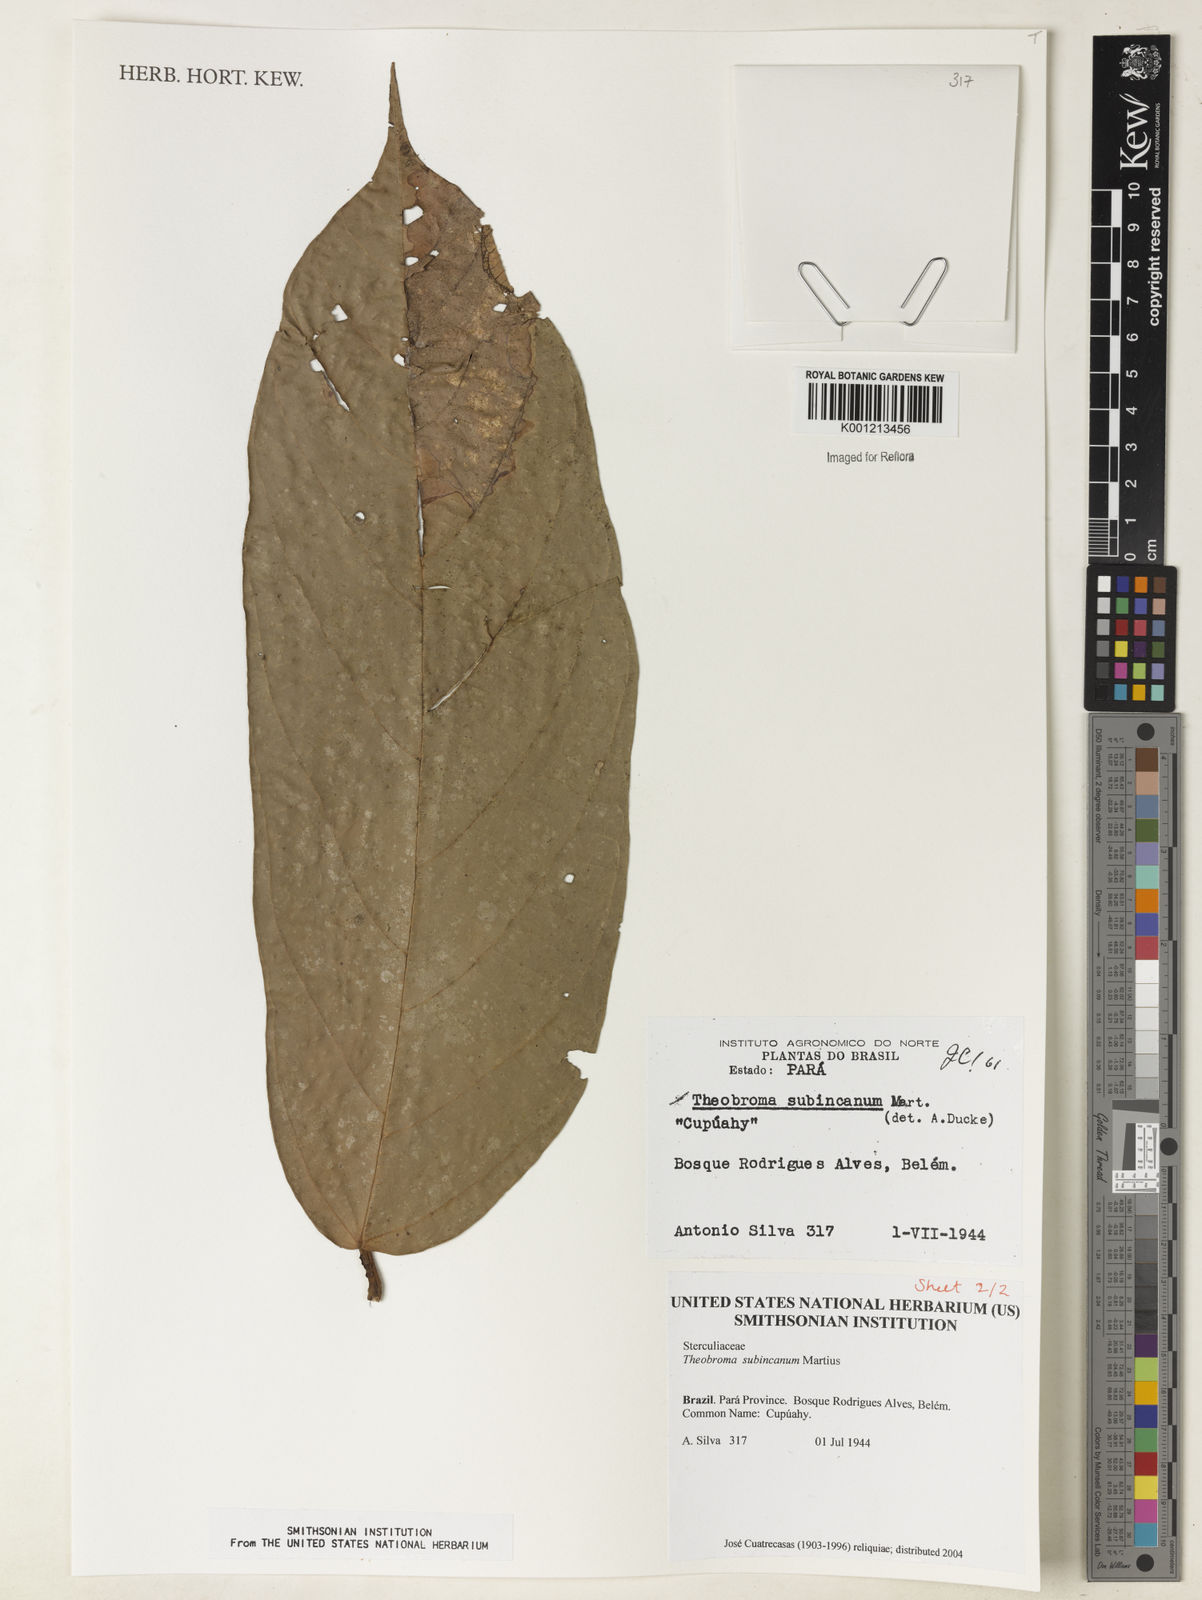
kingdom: Plantae
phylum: Tracheophyta
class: Magnoliopsida
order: Malvales
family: Malvaceae
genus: Theobroma
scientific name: Theobroma subincanum
